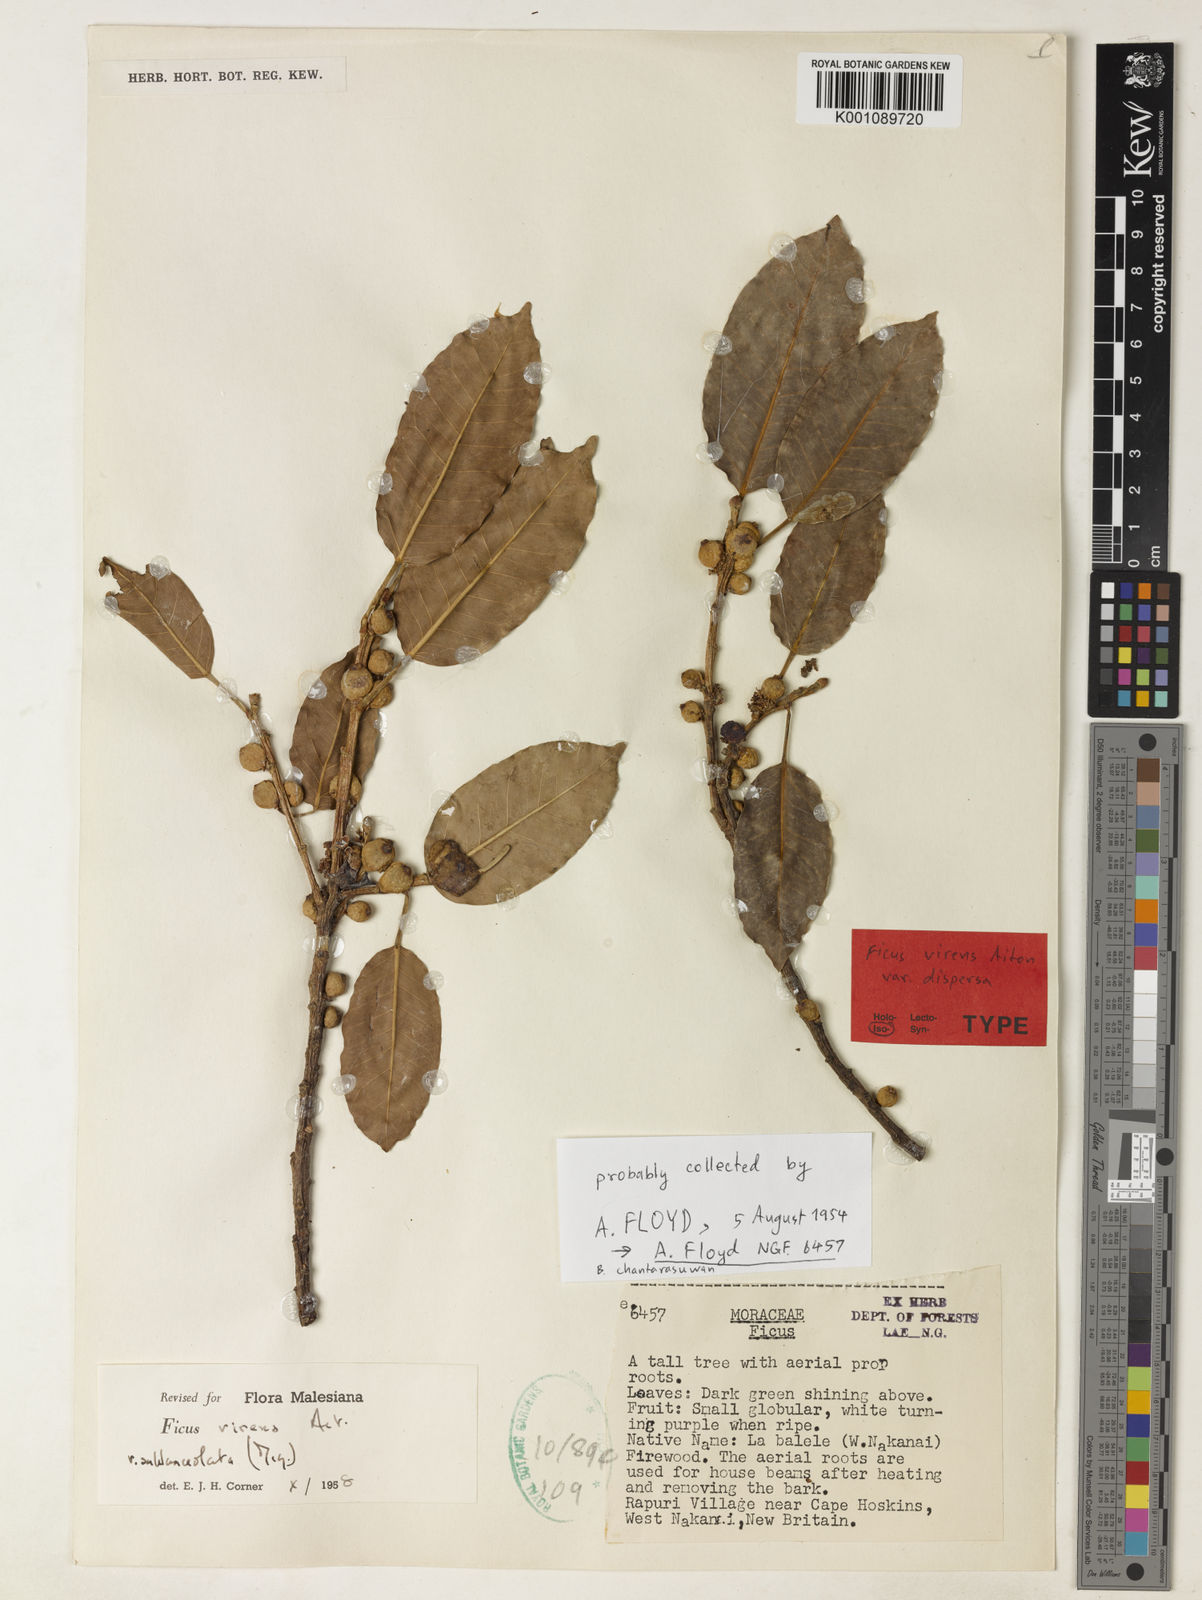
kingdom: Plantae
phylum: Tracheophyta
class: Magnoliopsida
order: Rosales
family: Moraceae
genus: Ficus
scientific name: Ficus virens
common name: Spotted fig
